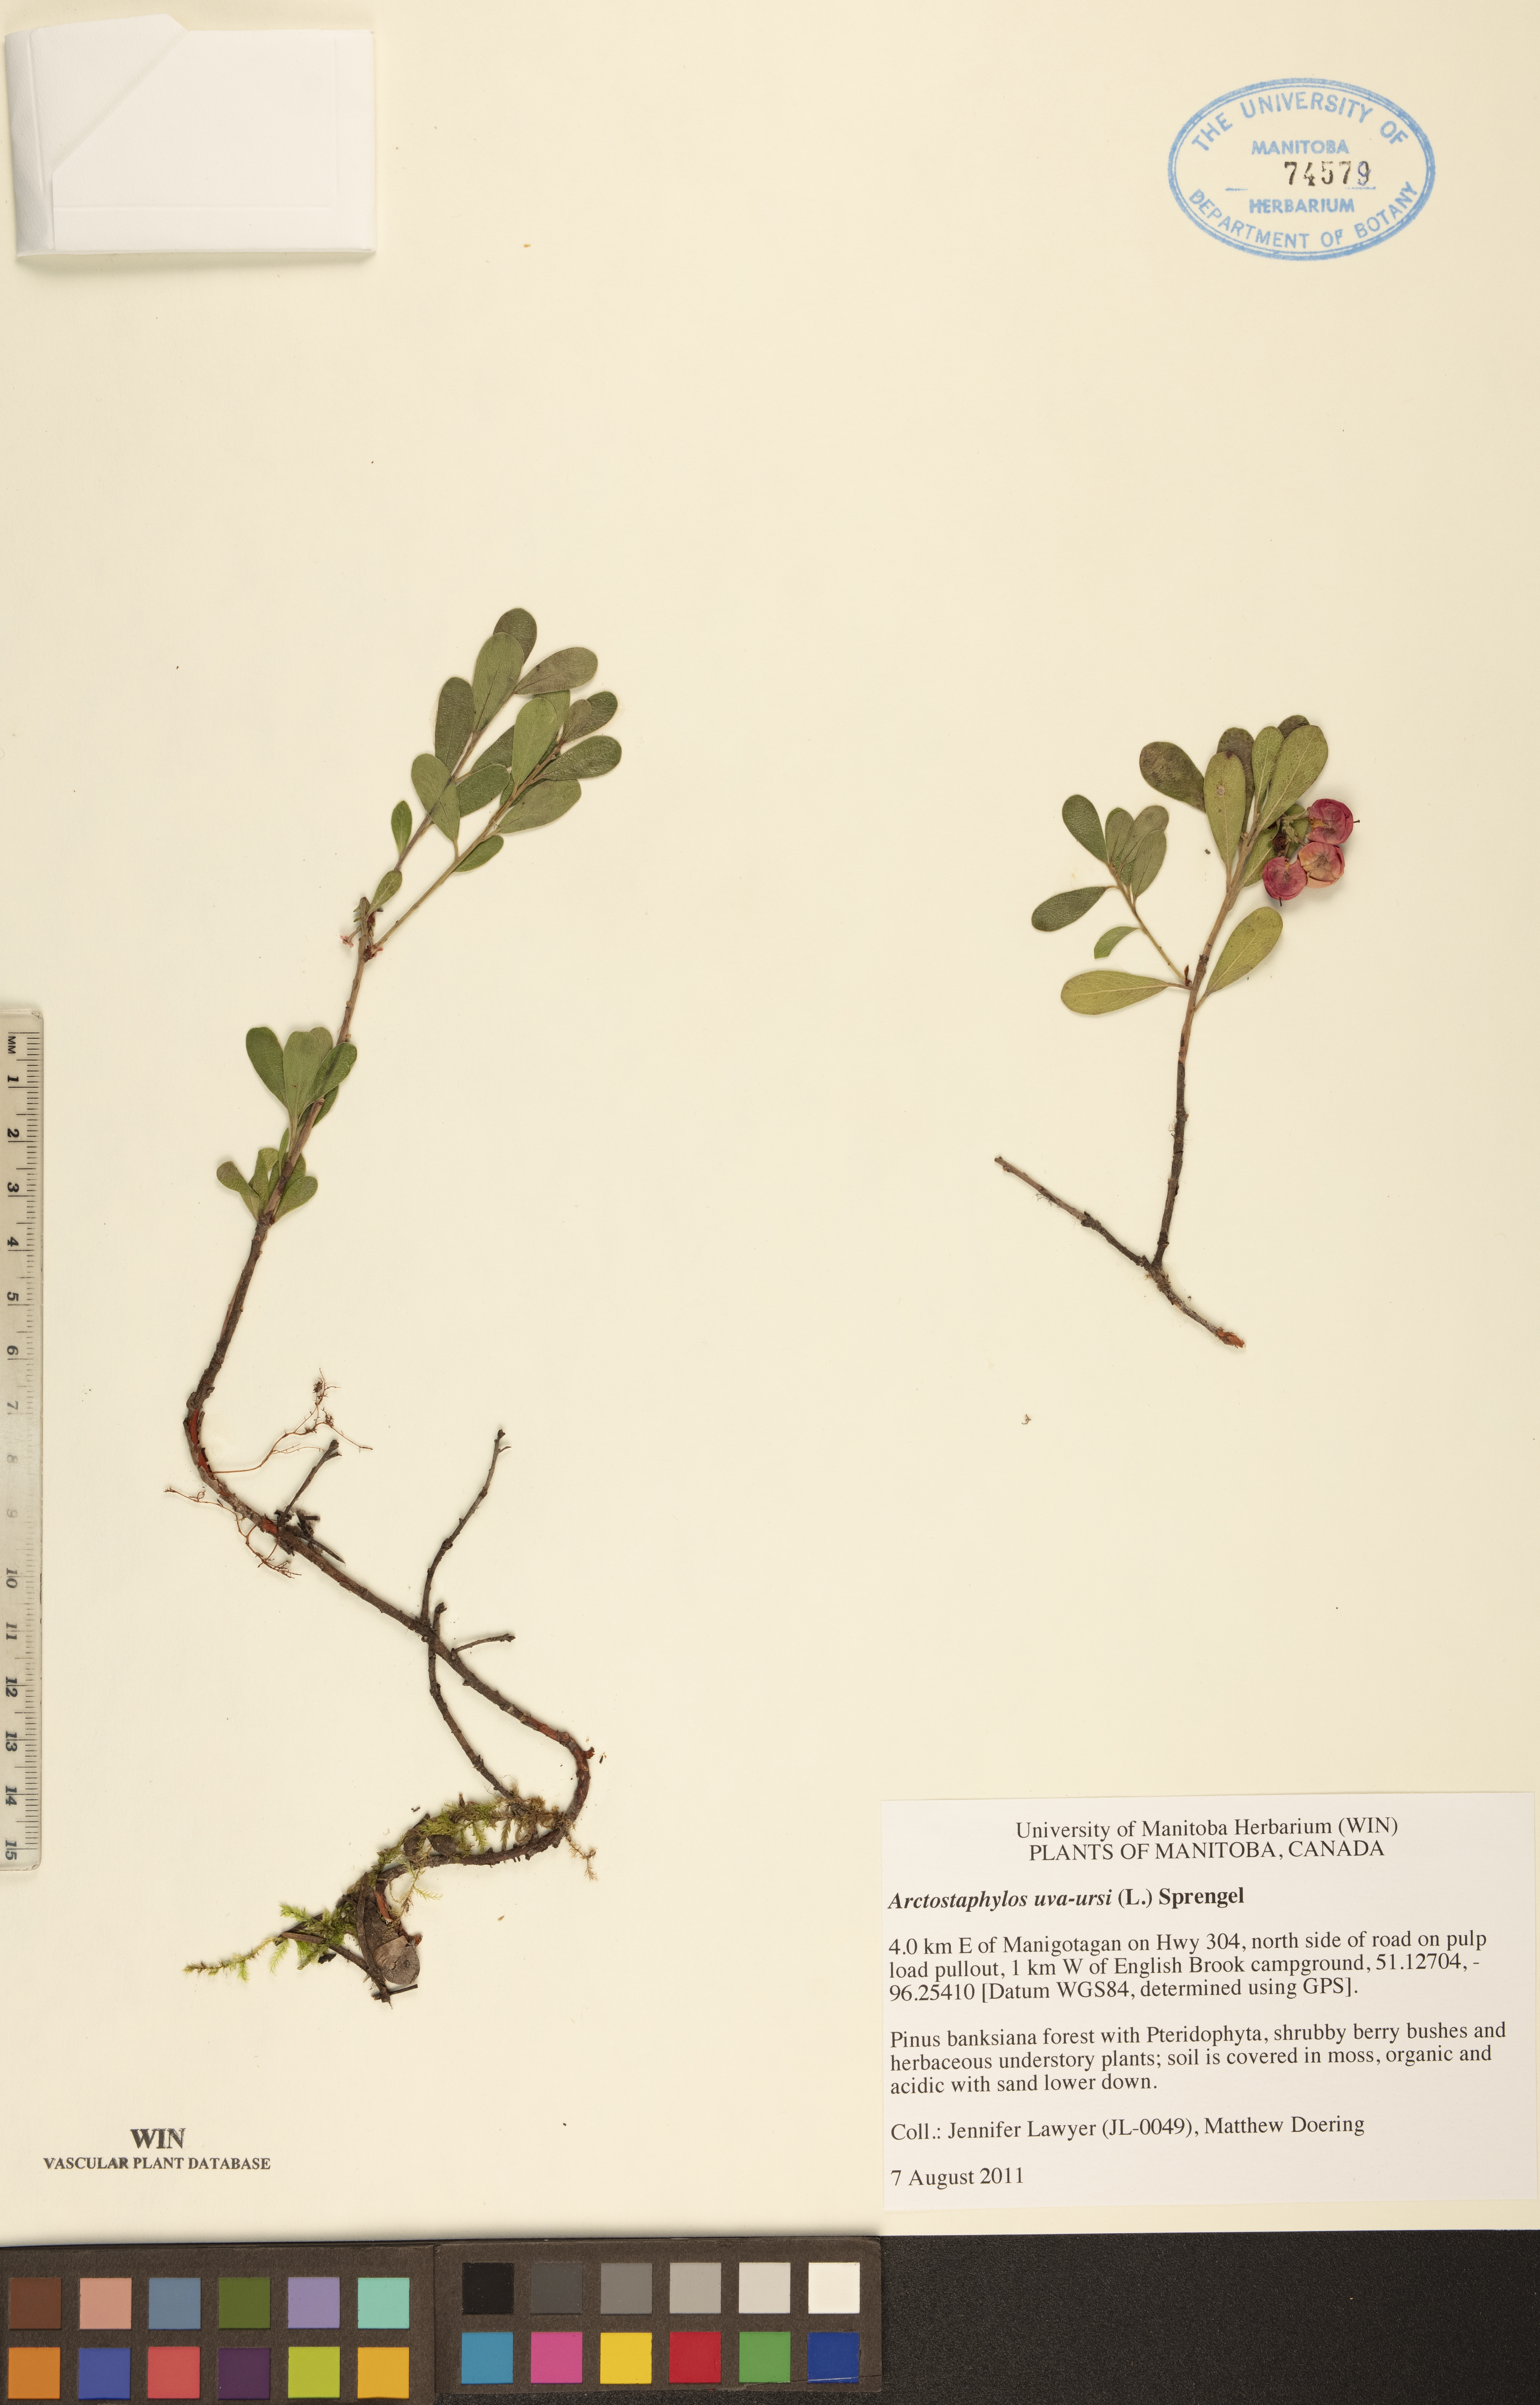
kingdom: Plantae
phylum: Tracheophyta
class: Magnoliopsida
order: Ericales
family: Ericaceae
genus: Arctostaphylos
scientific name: Arctostaphylos uva-ursi
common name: Bearberry
